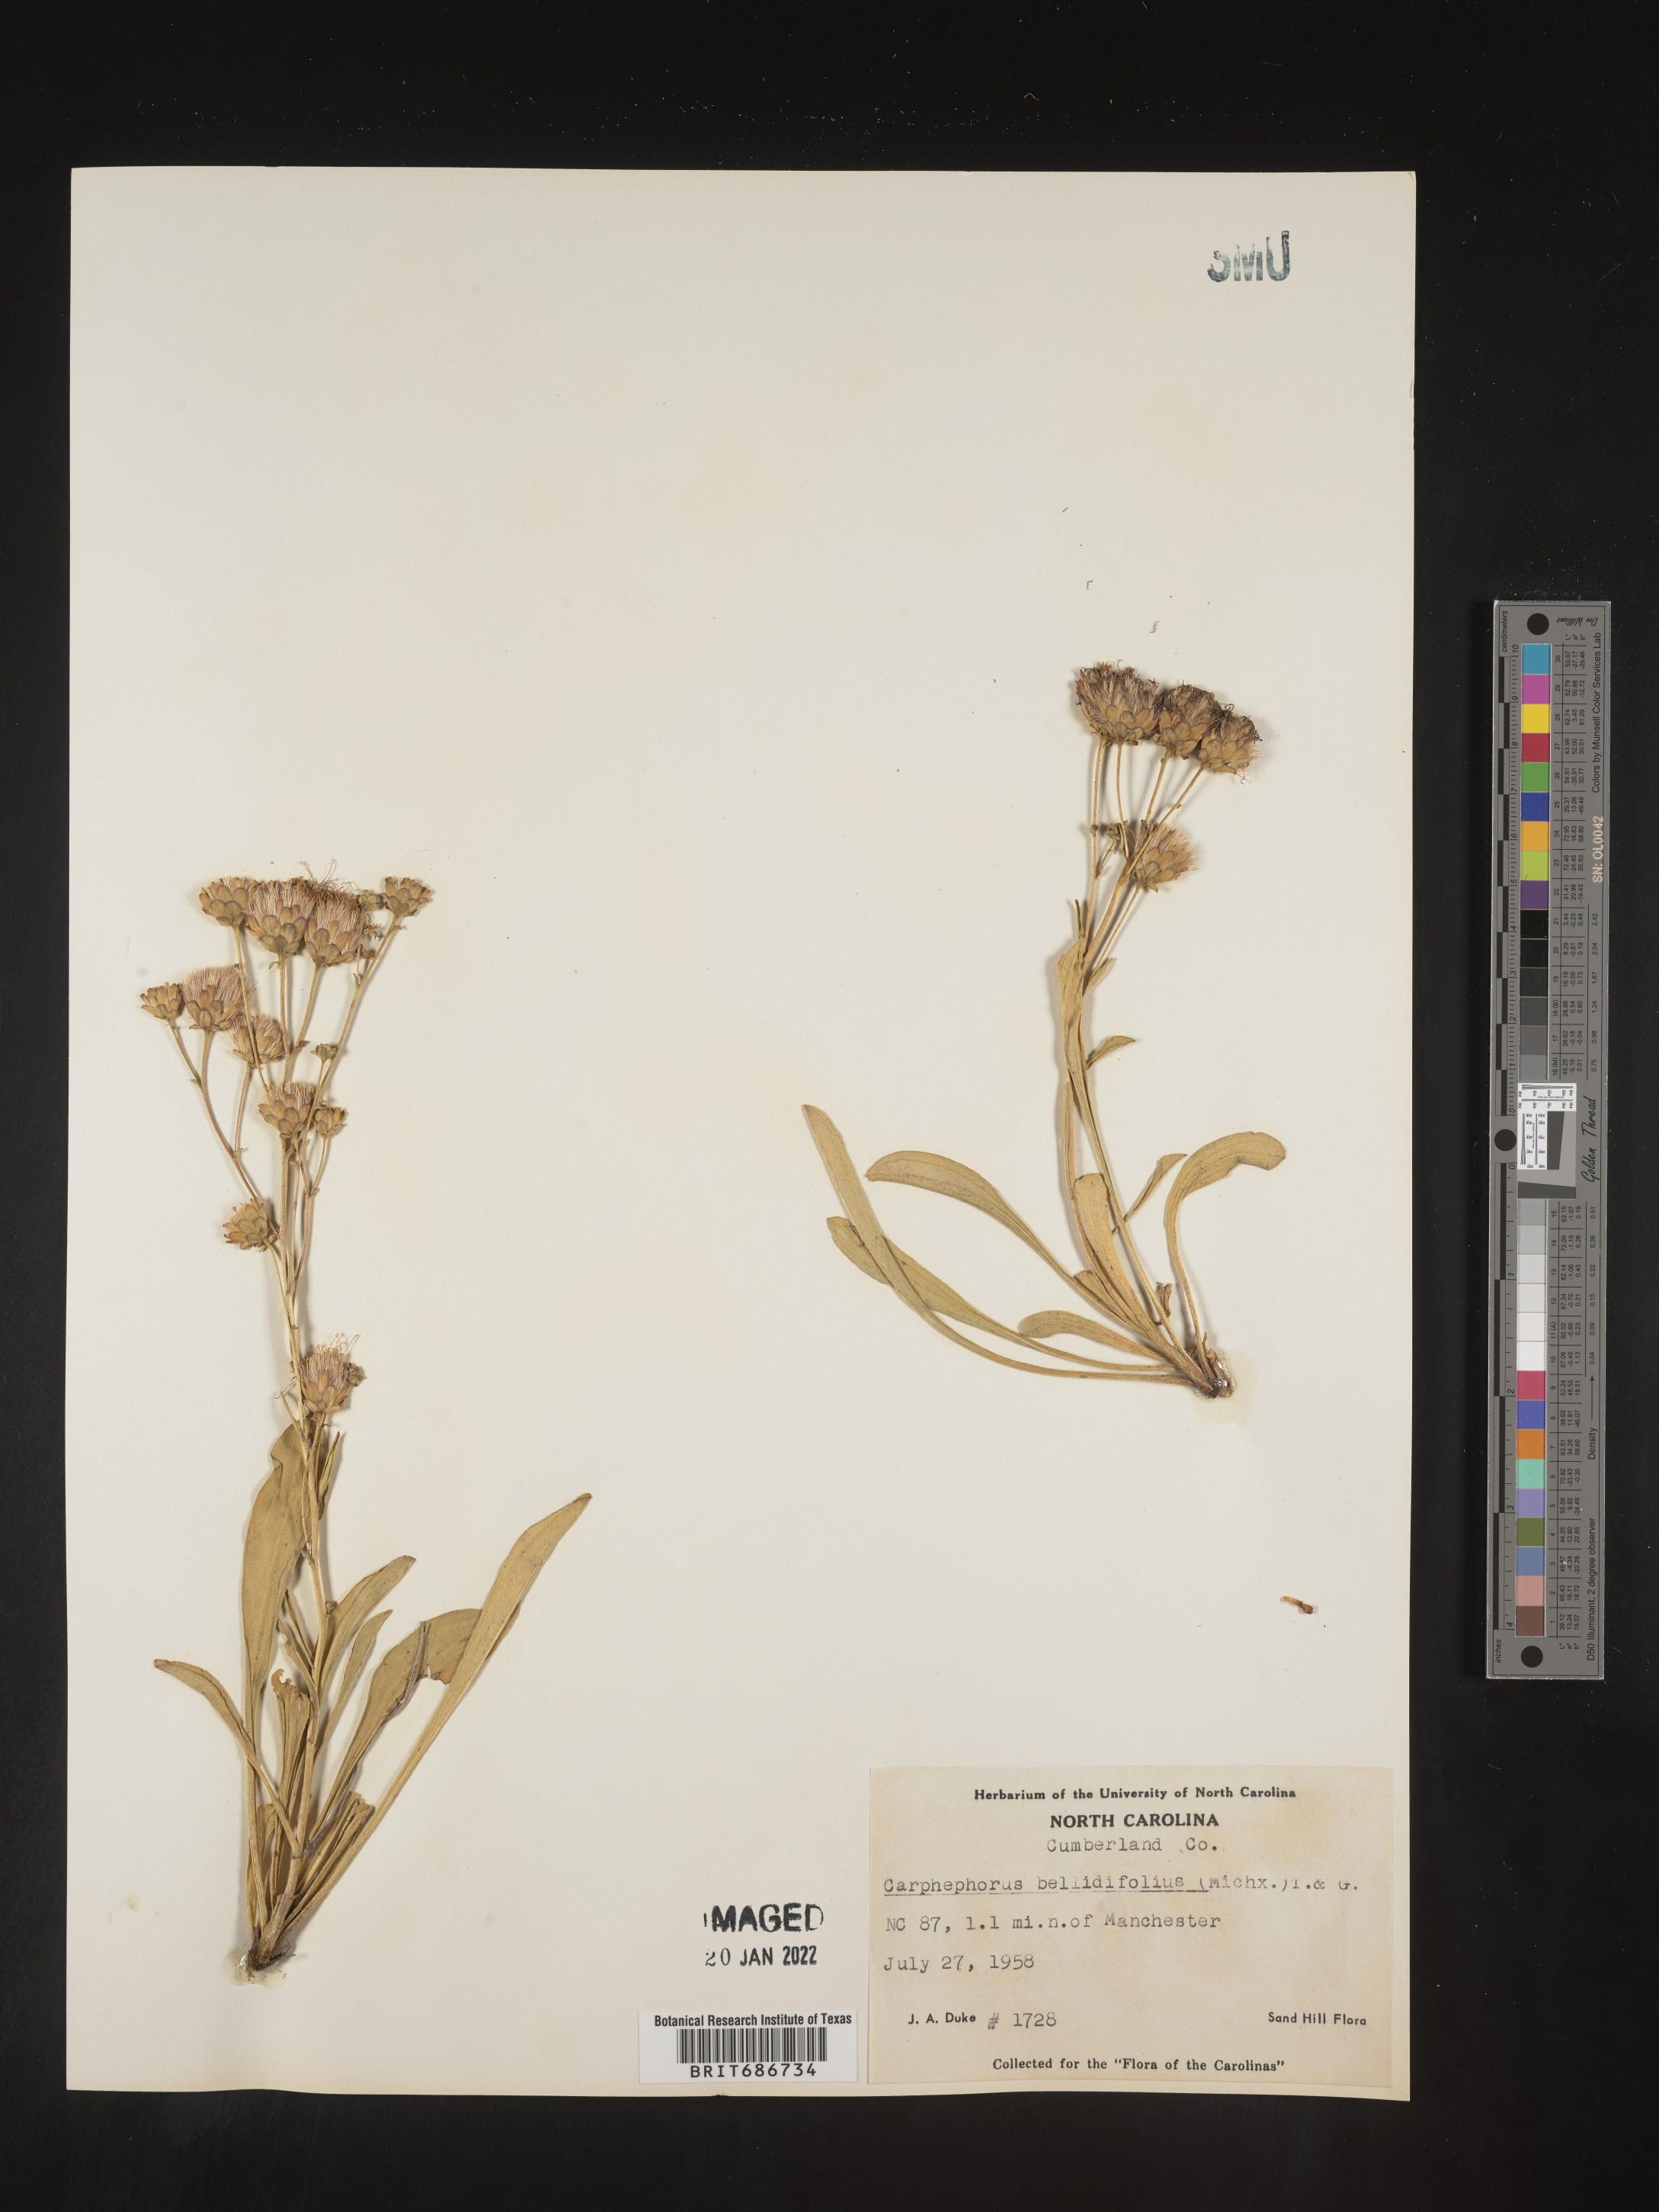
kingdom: Plantae
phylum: Tracheophyta
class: Magnoliopsida
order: Asterales
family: Asteraceae
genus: Carphephorus
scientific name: Carphephorus bellidifolius
